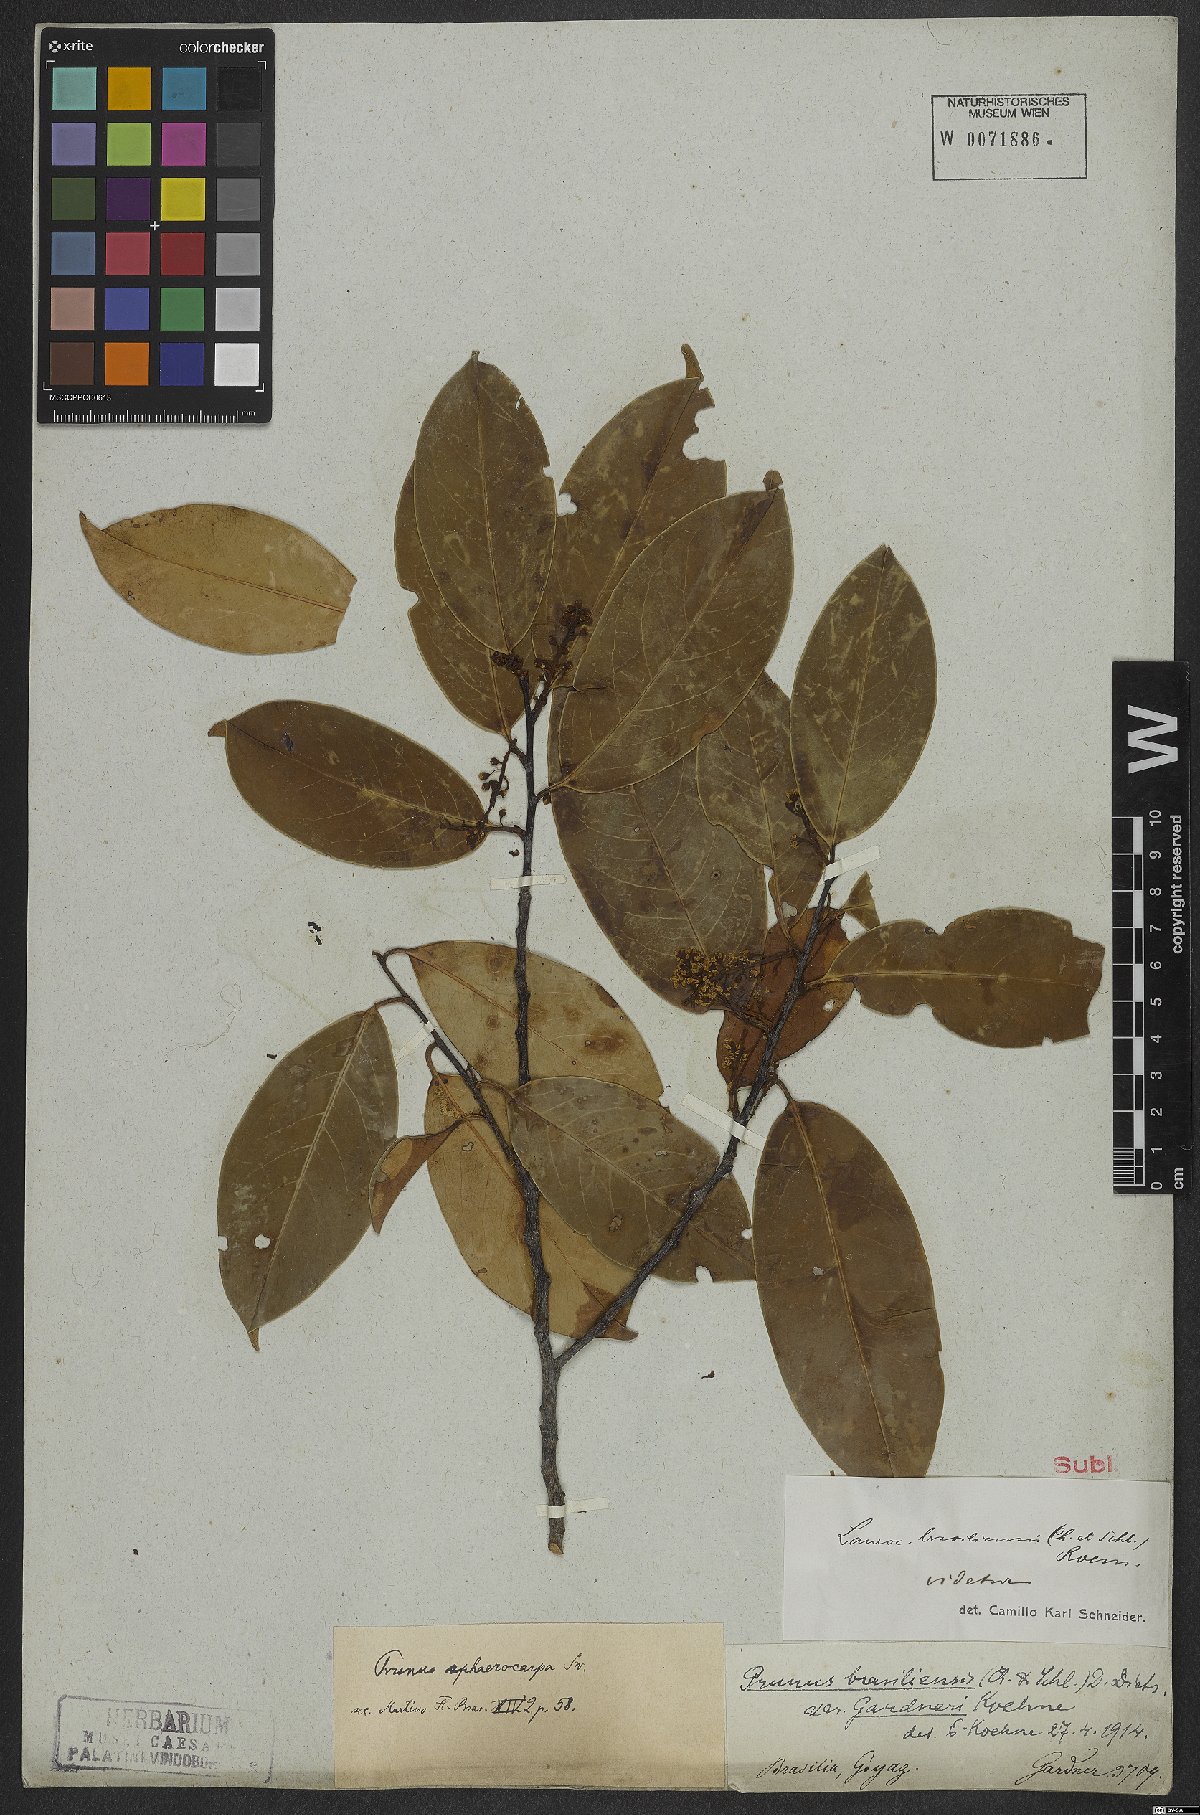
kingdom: Plantae
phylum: Tracheophyta
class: Magnoliopsida
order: Rosales
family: Rosaceae
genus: Prunus
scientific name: Prunus brasiliensis
